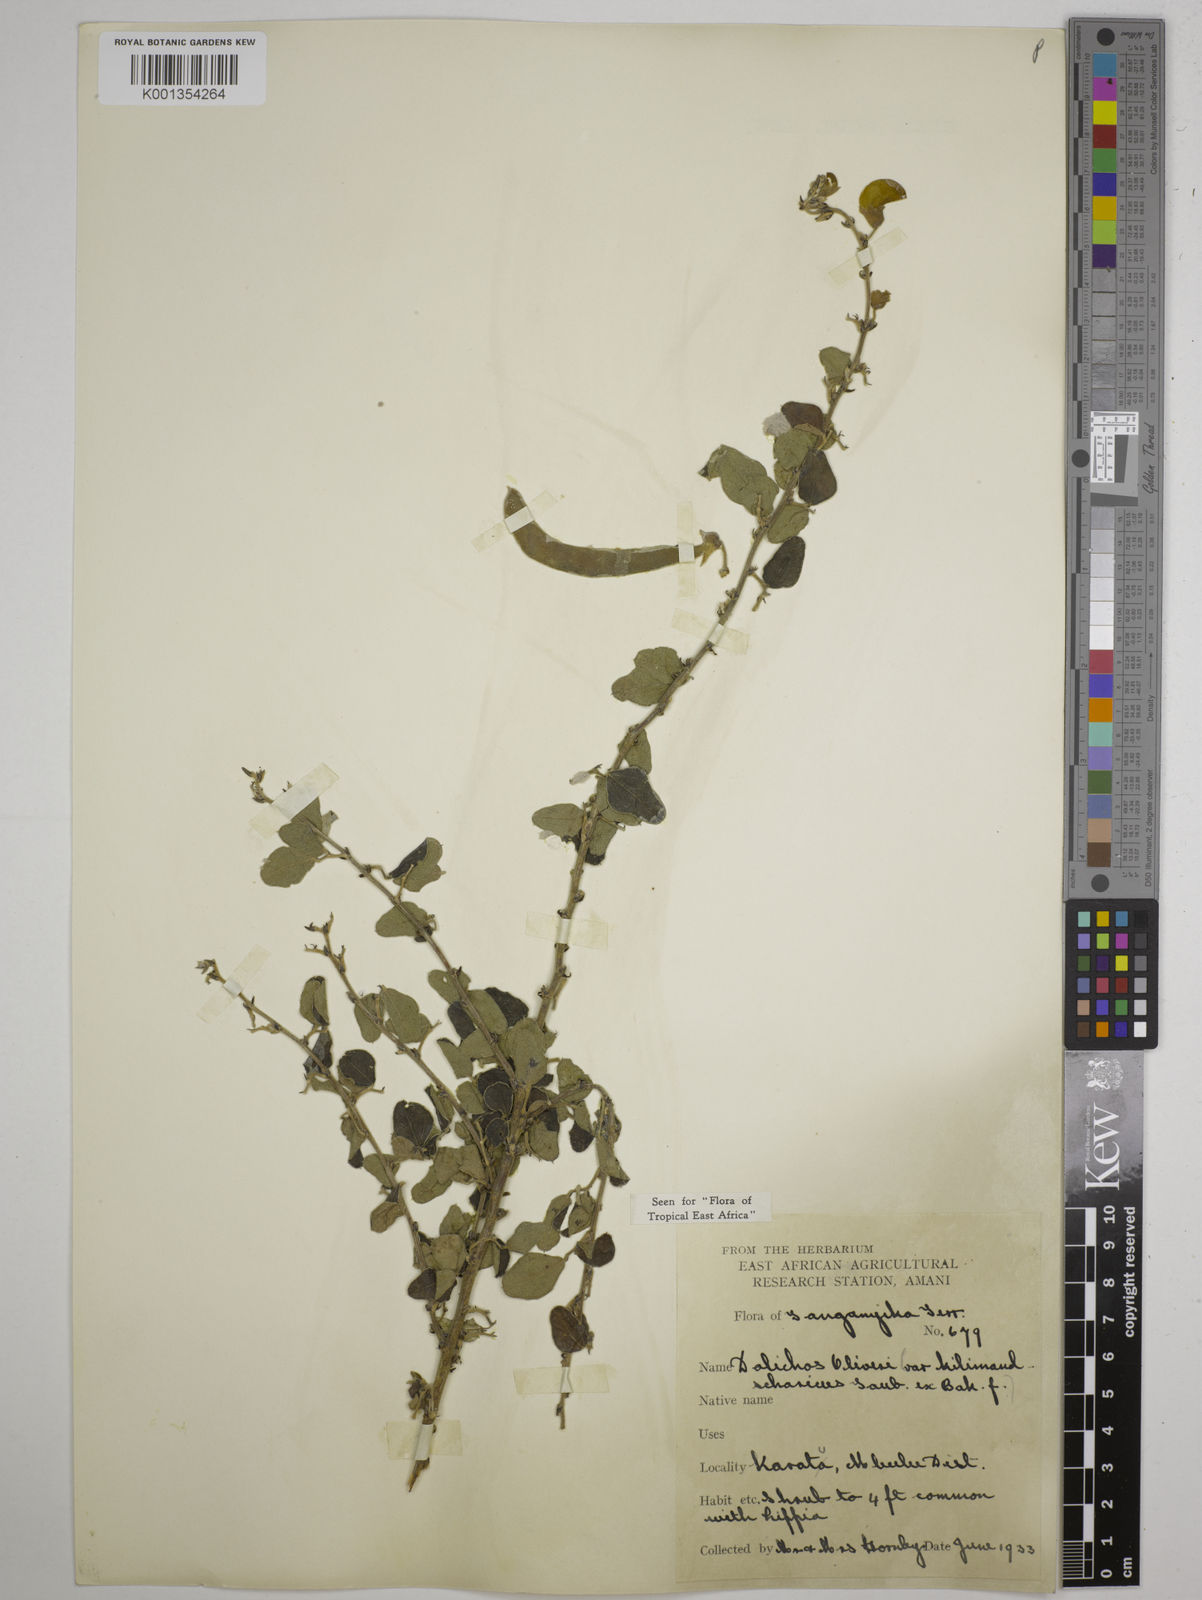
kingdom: Plantae
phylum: Tracheophyta
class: Magnoliopsida
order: Fabales
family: Fabaceae
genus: Dolichos
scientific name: Dolichos
